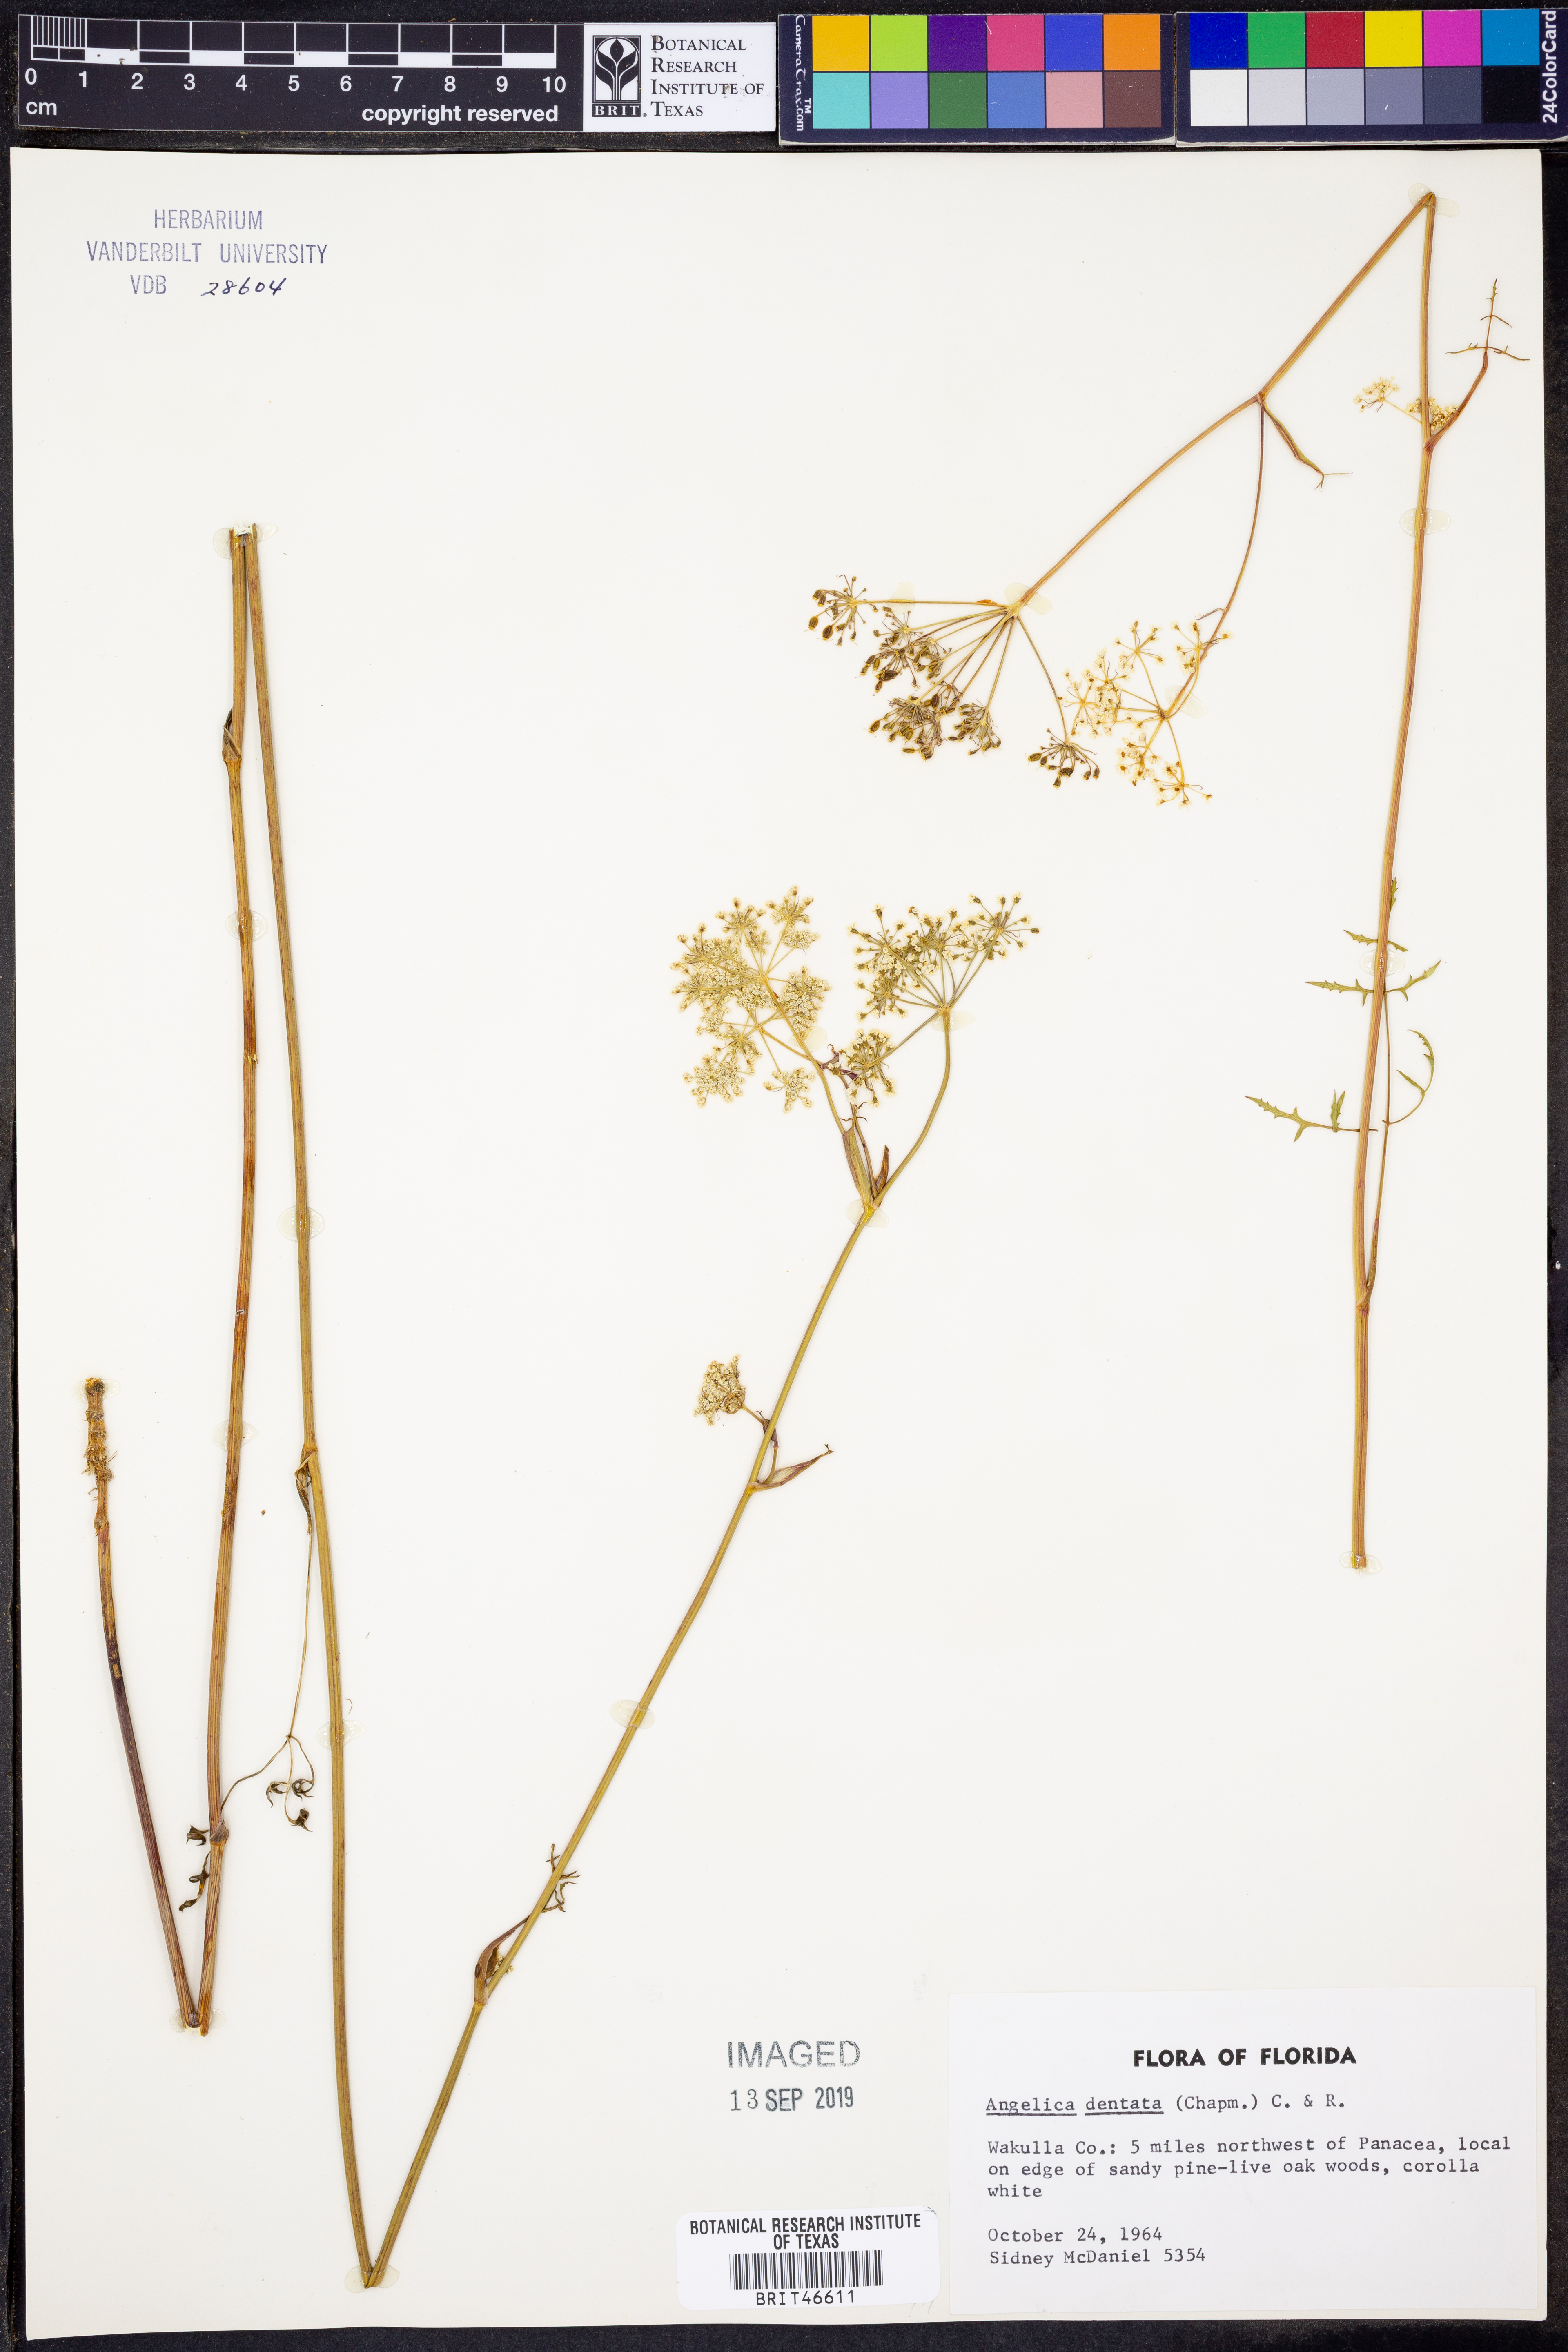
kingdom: Plantae
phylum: Tracheophyta
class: Magnoliopsida
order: Apiales
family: Apiaceae
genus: Angelica
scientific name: Angelica venenosa
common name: Hairy angelica
